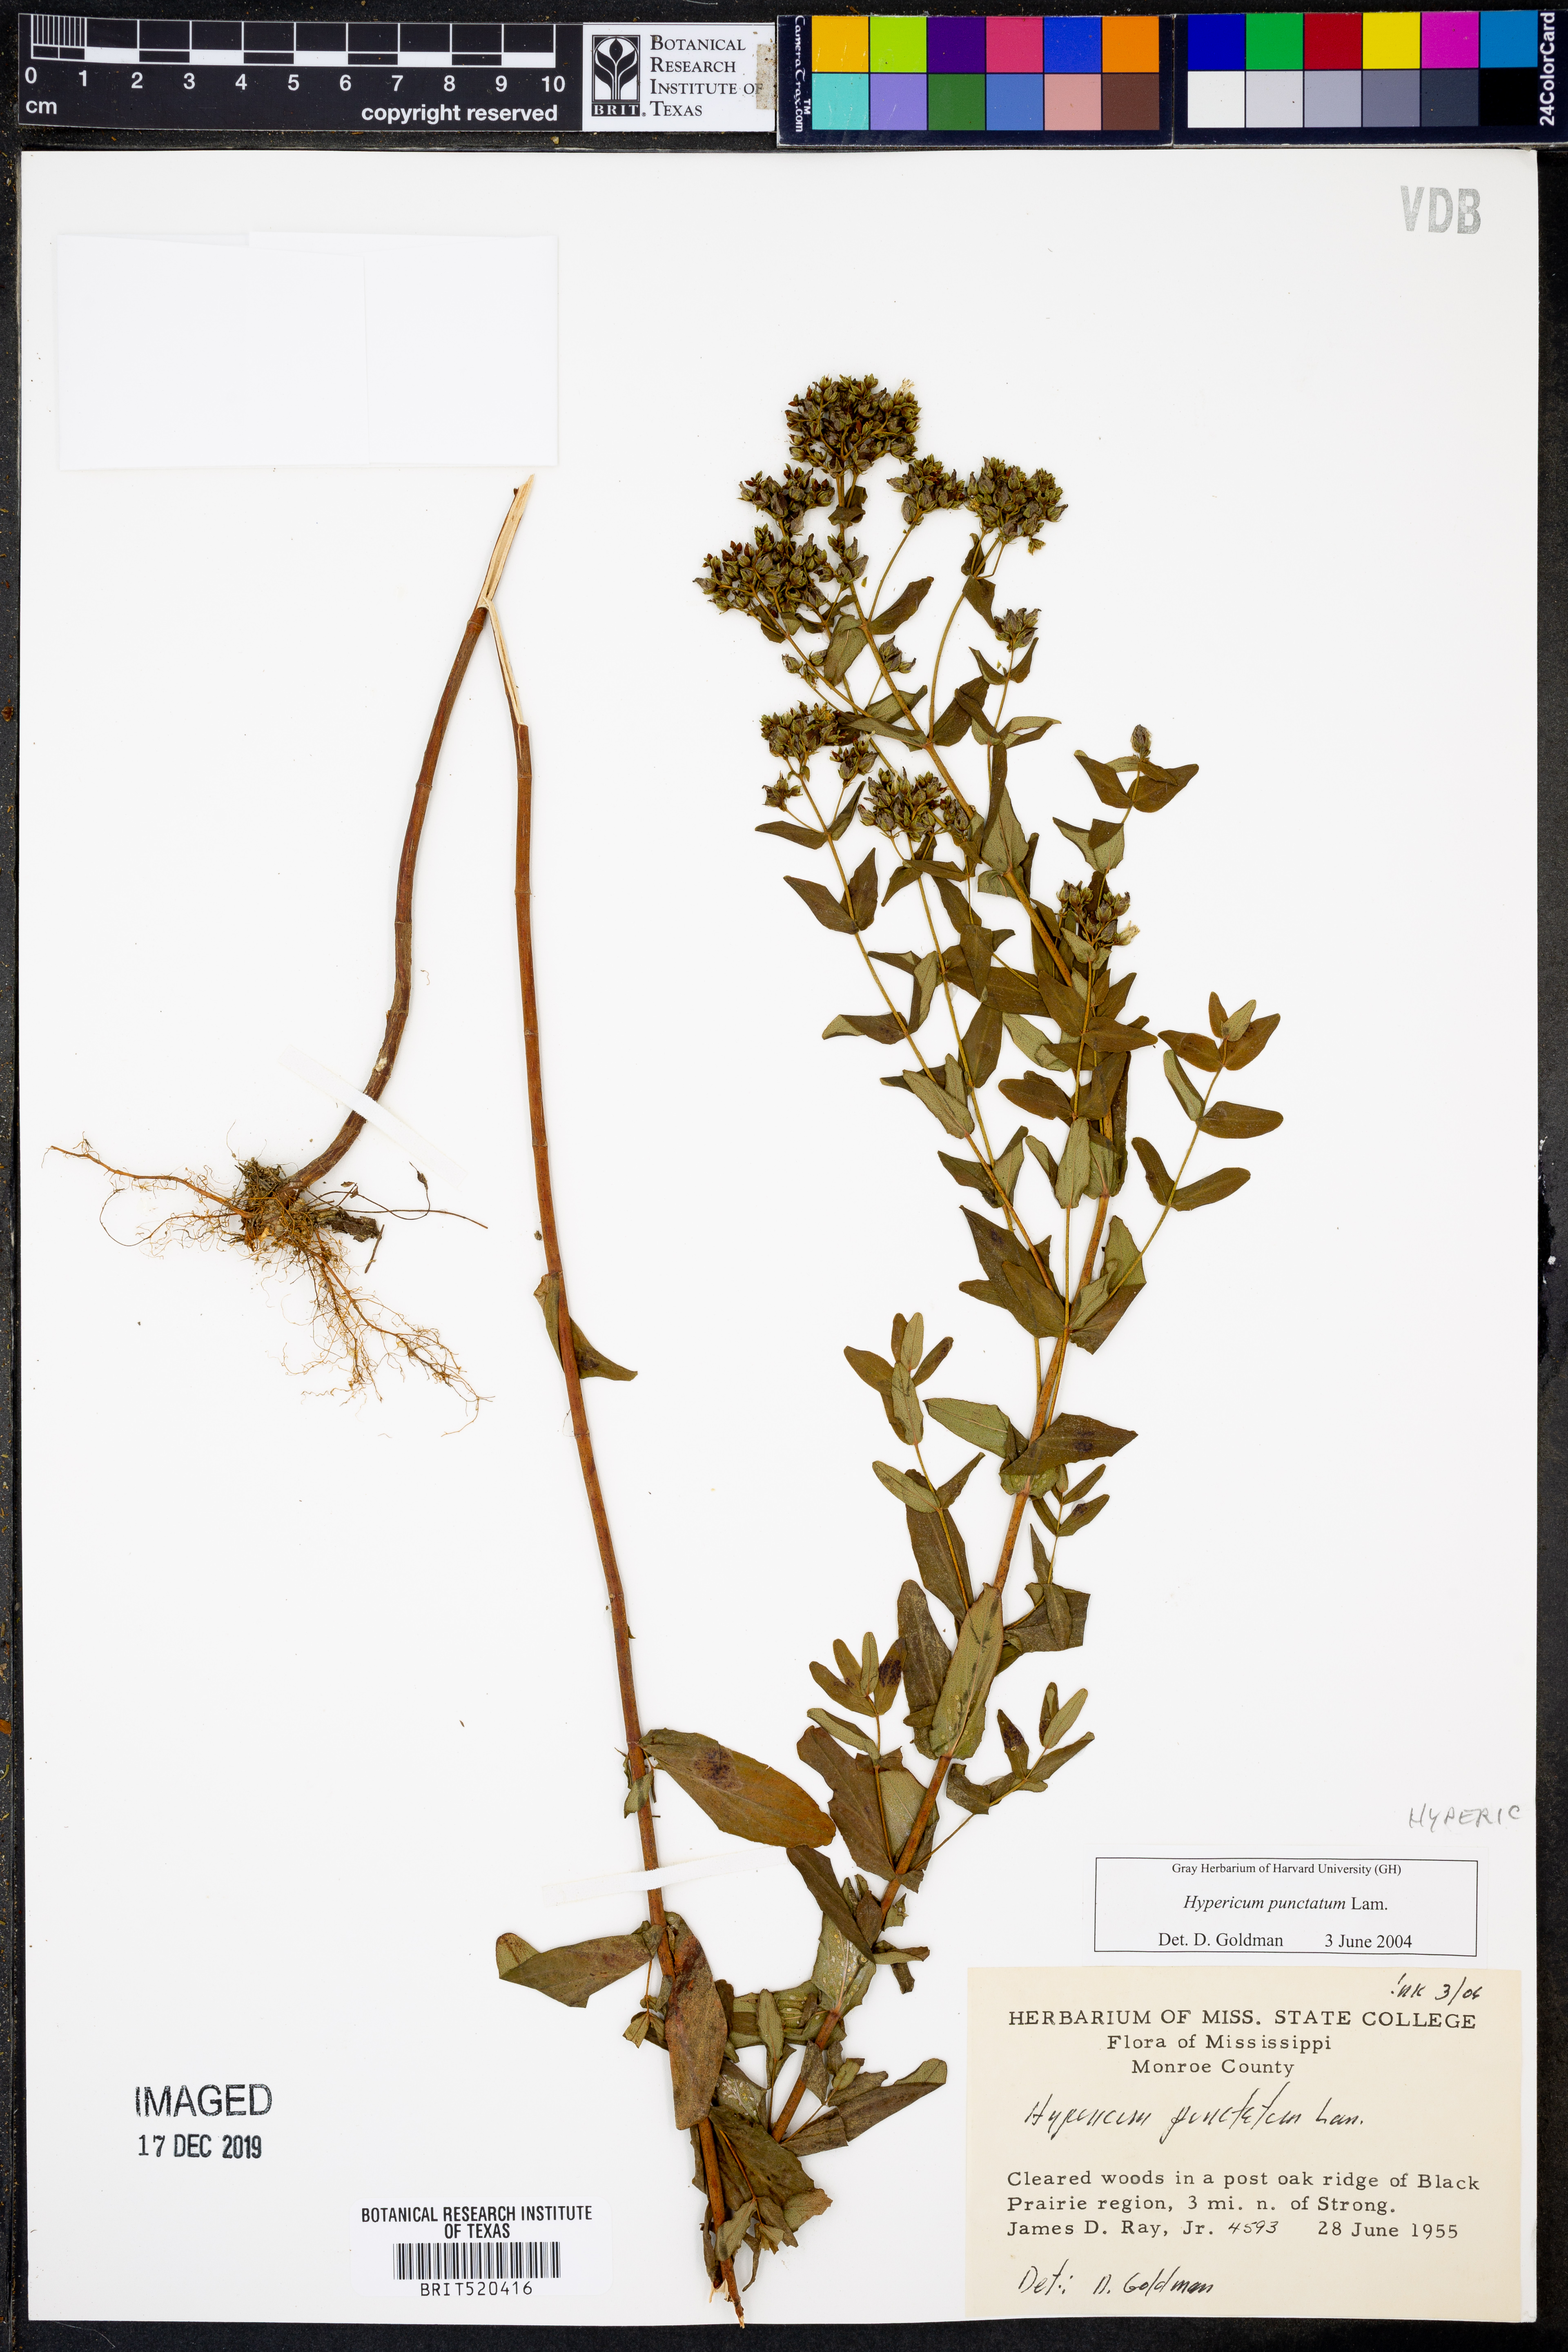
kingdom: Plantae
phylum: Tracheophyta
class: Magnoliopsida
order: Malpighiales
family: Hypericaceae
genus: Hypericum
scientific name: Hypericum punctatum
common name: Spotted st. john's-wort
